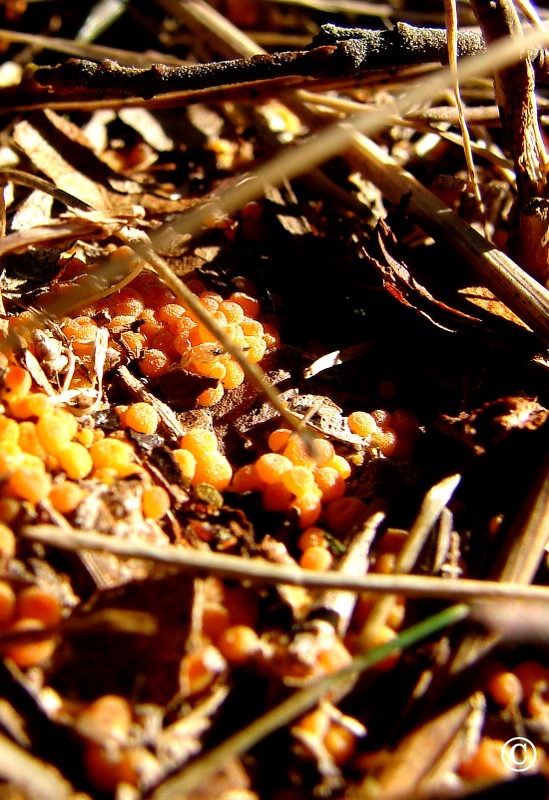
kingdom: Fungi
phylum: Ascomycota
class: Pezizomycetes
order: Pezizales
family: Pyronemataceae
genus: Byssonectria
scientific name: Byssonectria terrestris
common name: hjortebæger
